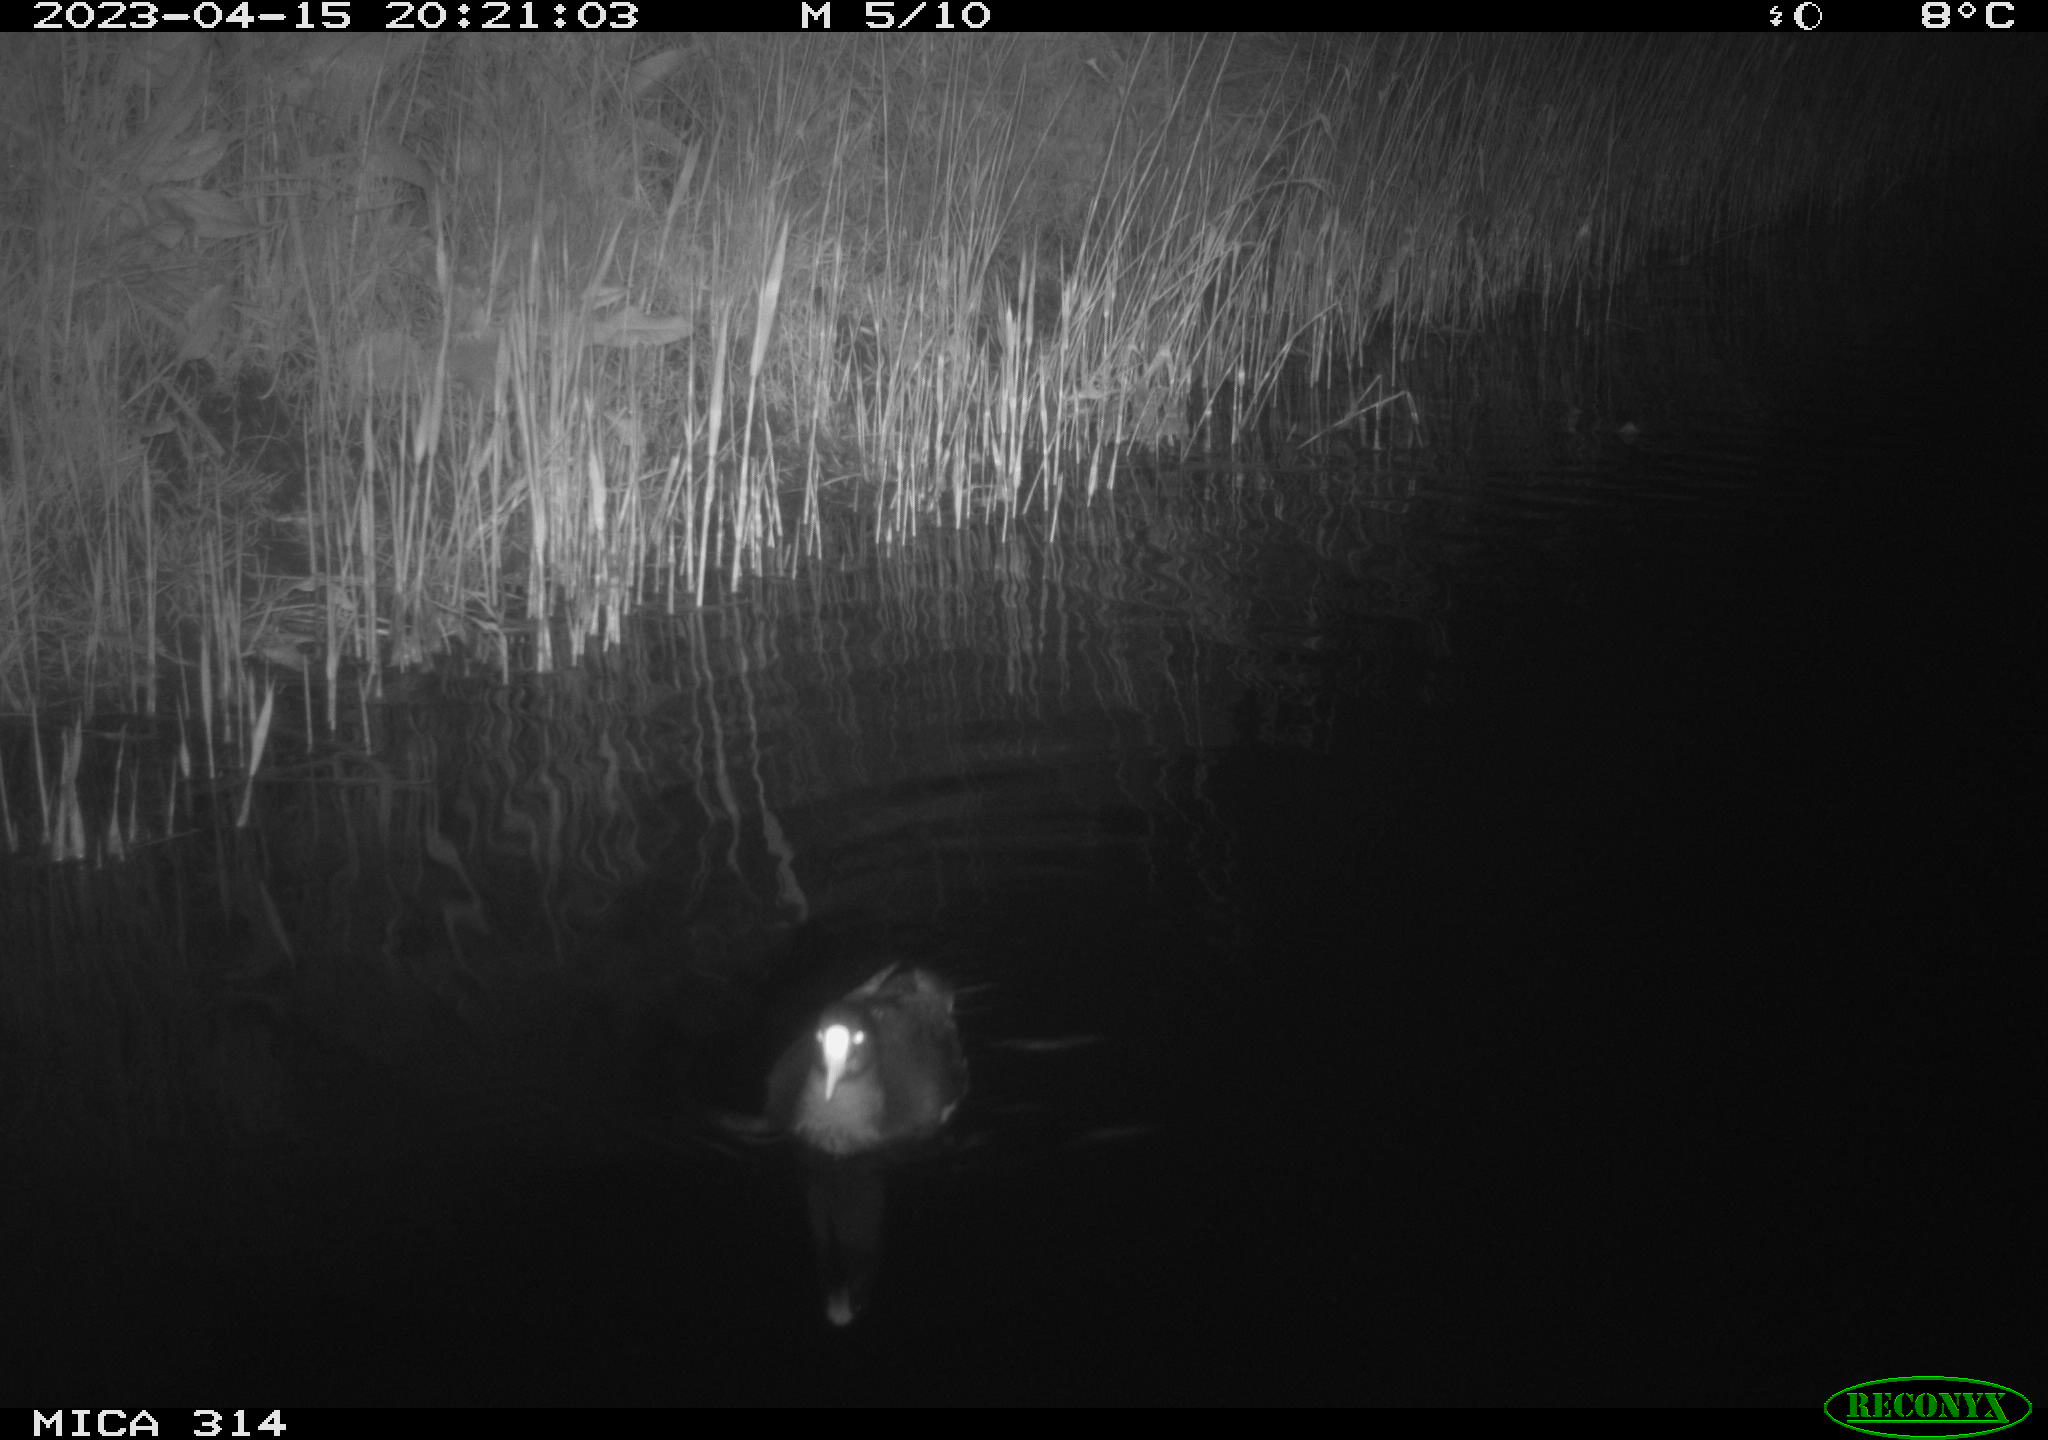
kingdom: Animalia
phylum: Chordata
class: Aves
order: Gruiformes
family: Rallidae
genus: Gallinula
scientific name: Gallinula chloropus
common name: Common moorhen
